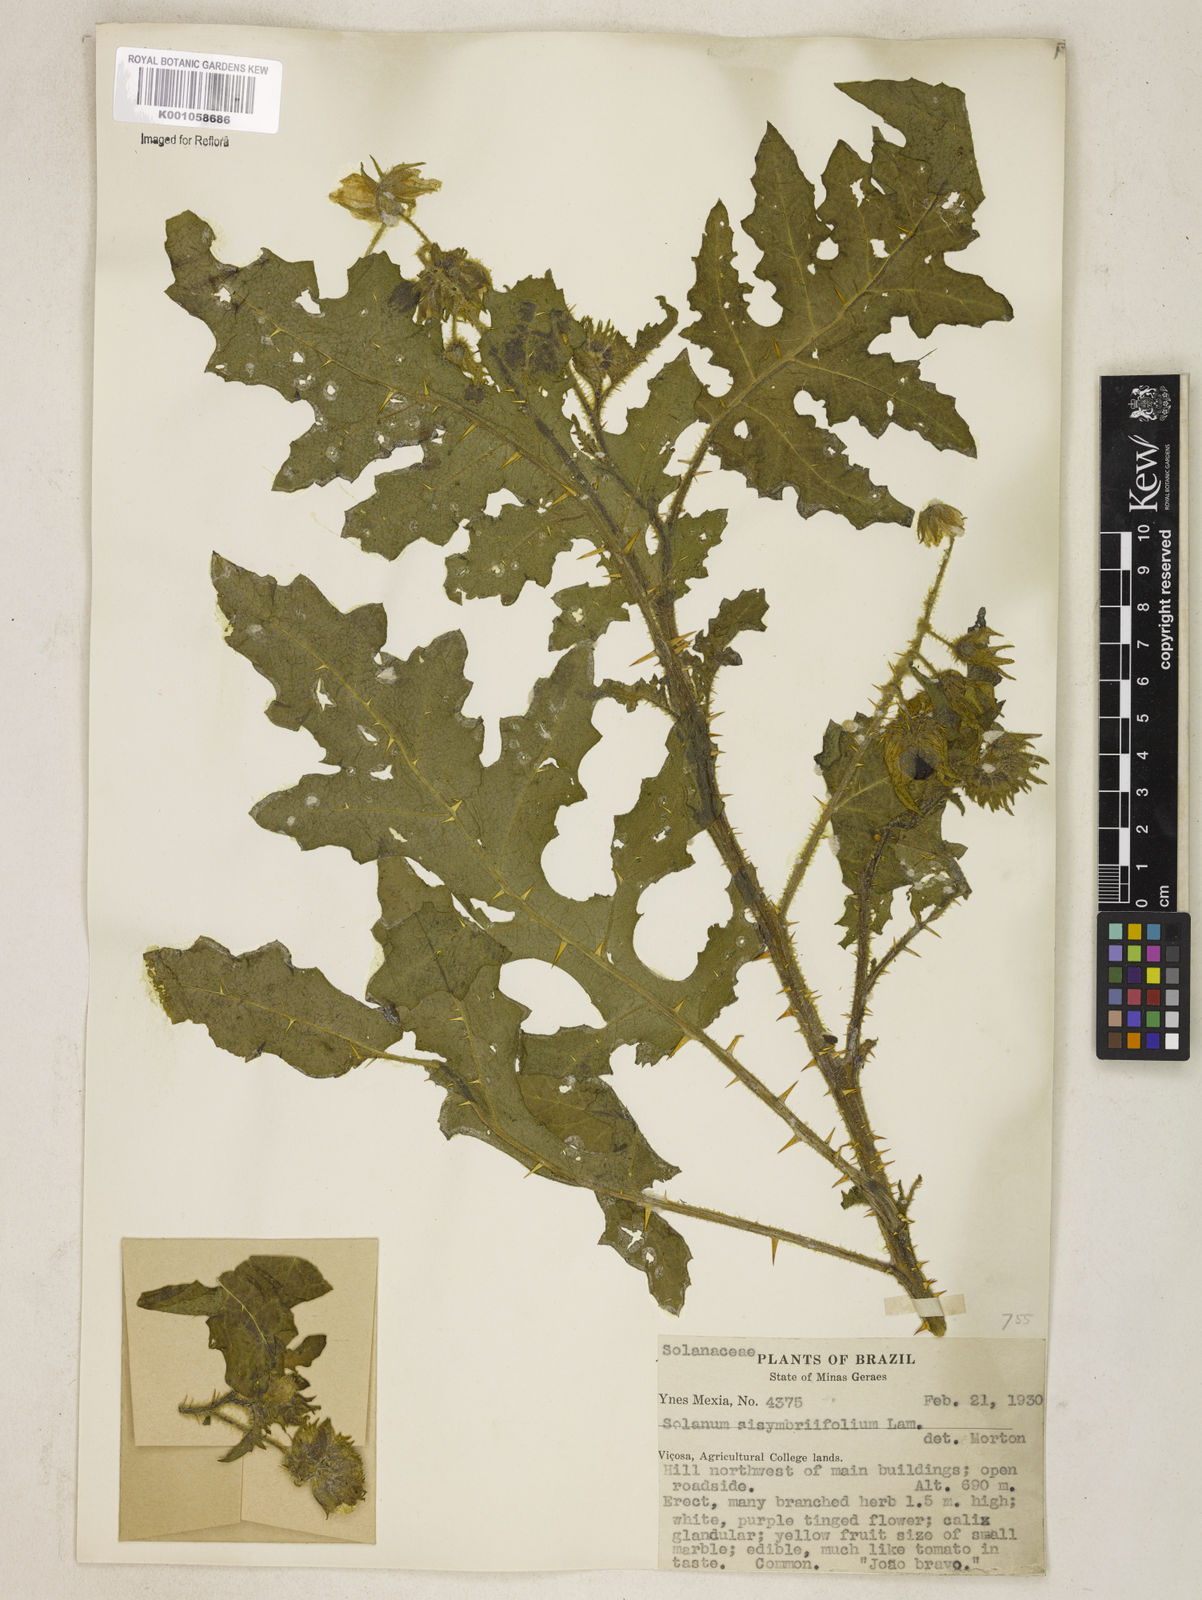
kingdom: Plantae
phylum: Tracheophyta
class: Magnoliopsida
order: Solanales
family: Solanaceae
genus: Solanum
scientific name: Solanum sisymbriifolium
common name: Red buffalo-bur
